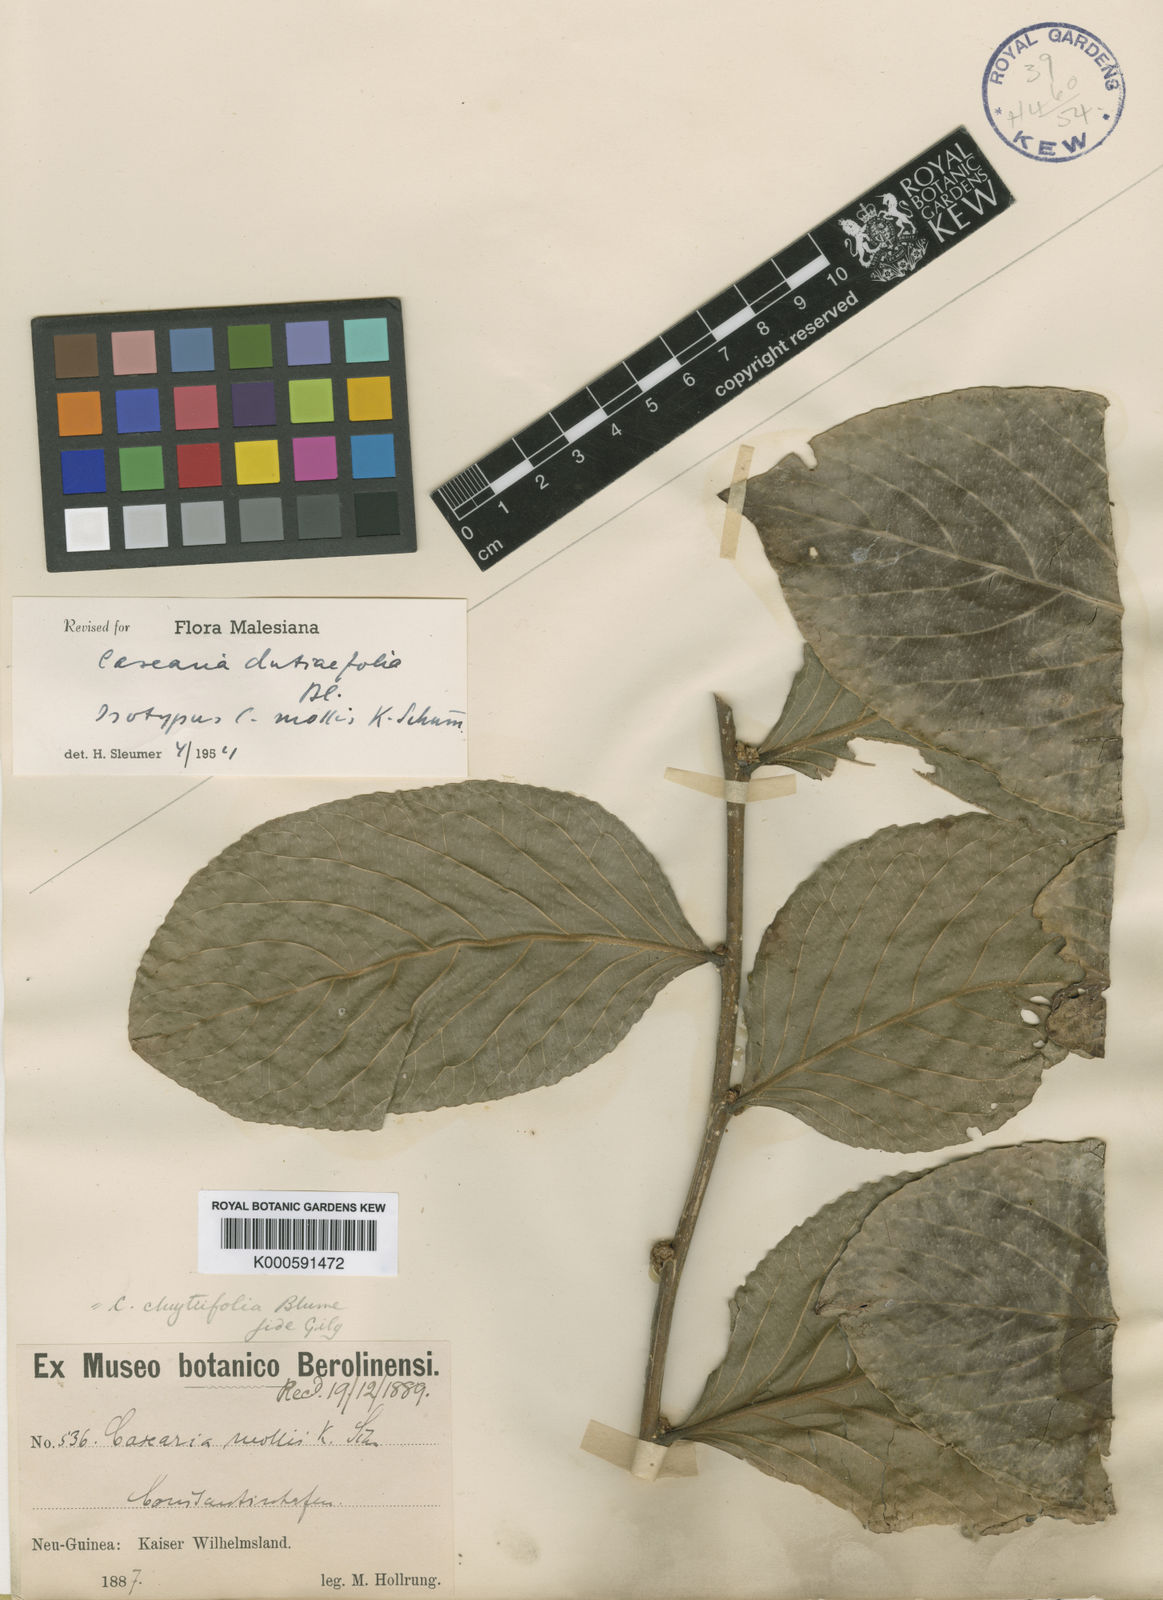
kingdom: Plantae
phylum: Tracheophyta
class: Magnoliopsida
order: Malpighiales
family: Salicaceae
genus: Casearia
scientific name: Casearia clutiifolia
